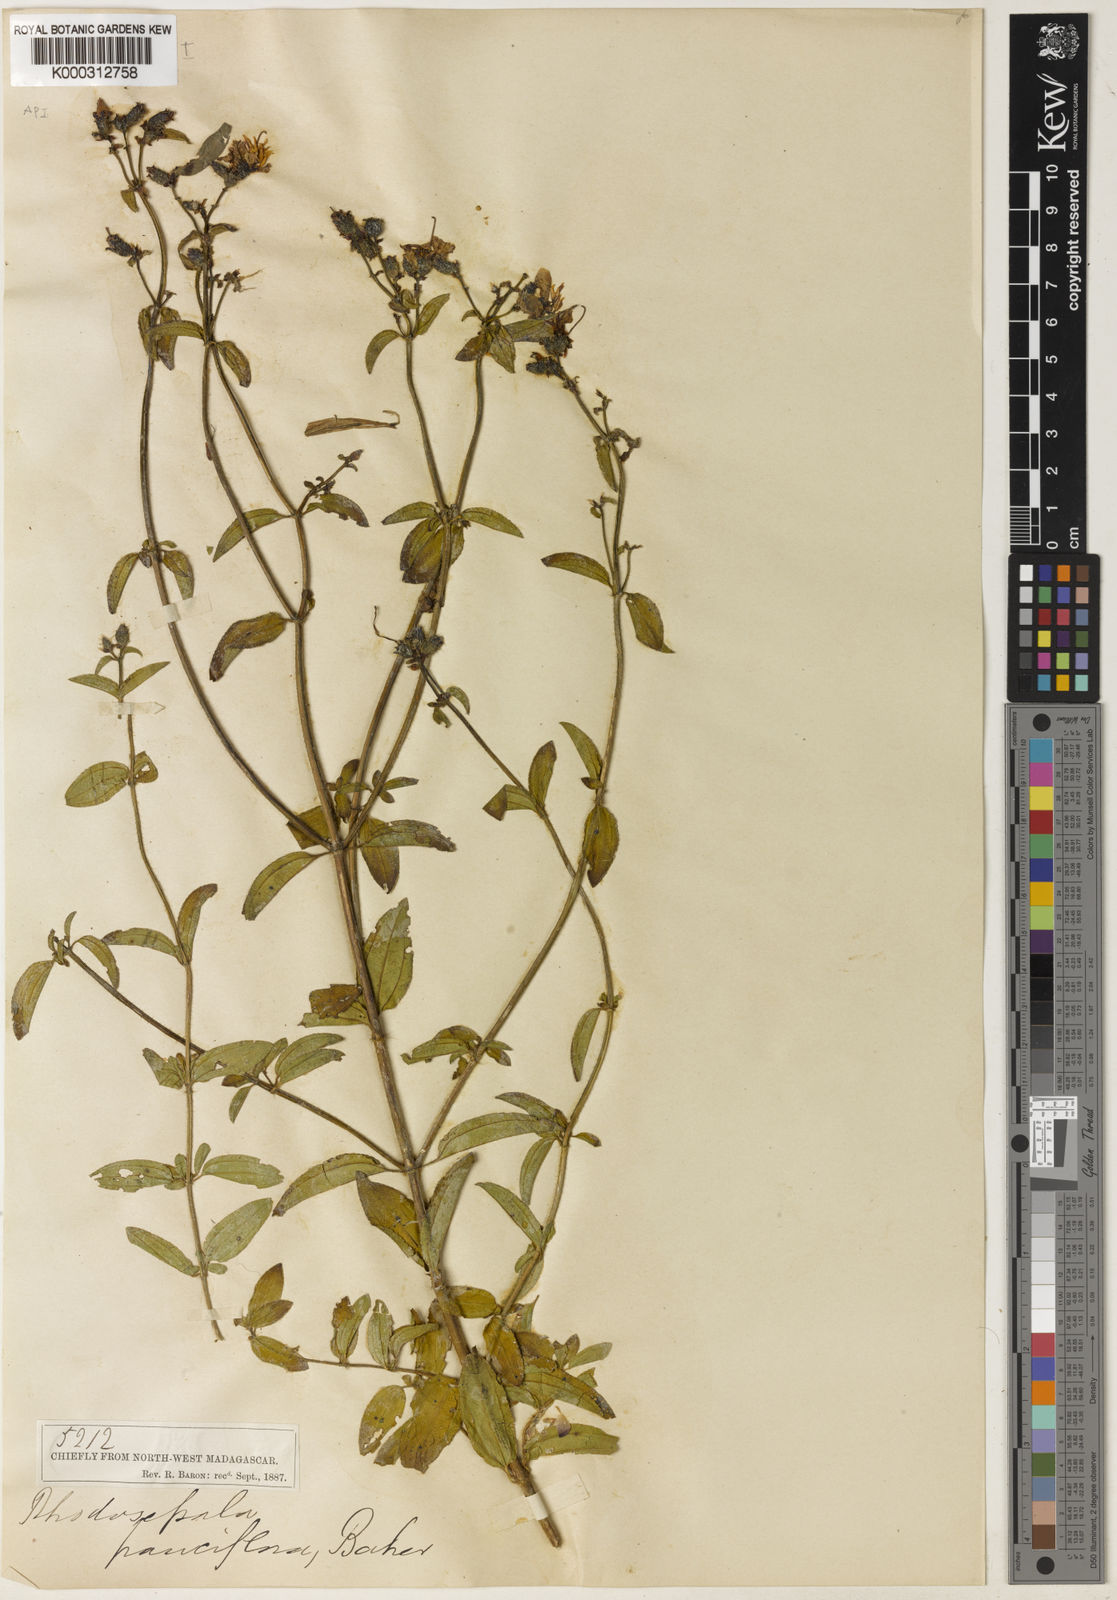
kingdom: Plantae
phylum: Tracheophyta
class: Magnoliopsida
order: Myrtales
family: Melastomataceae
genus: Dissotis
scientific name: Dissotis
